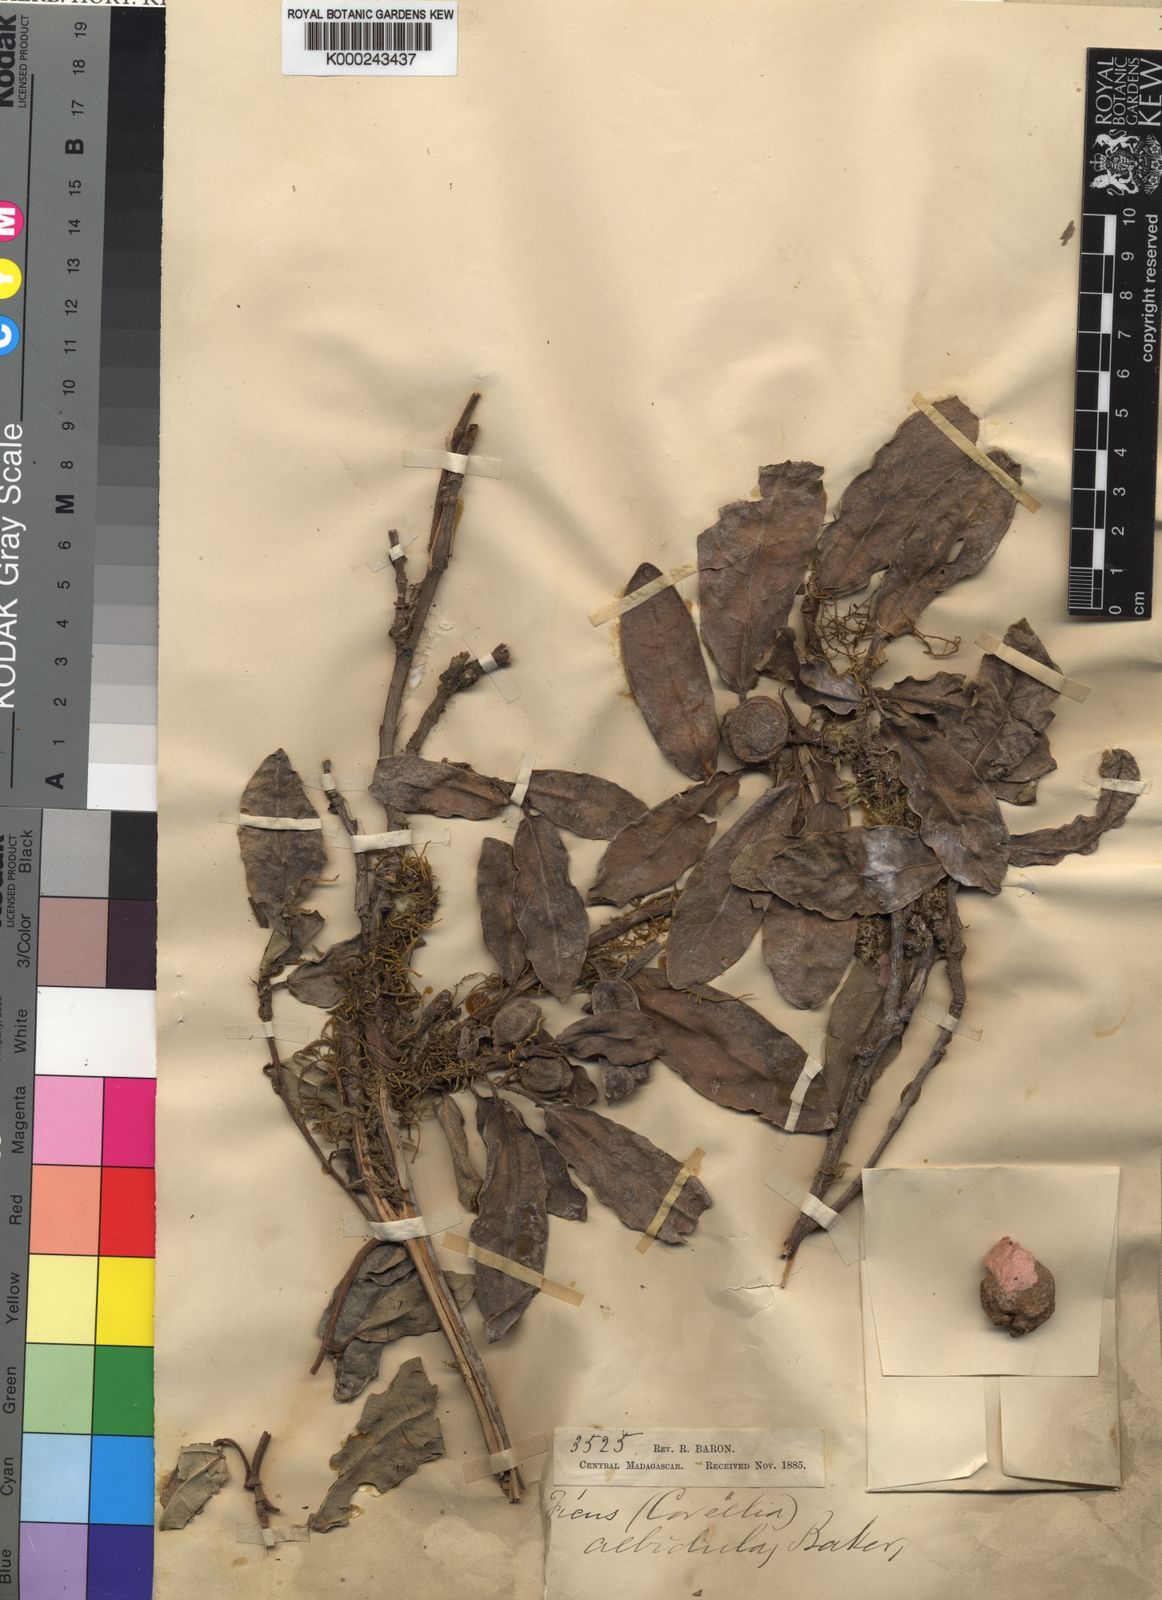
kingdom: Plantae
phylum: Tracheophyta
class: Magnoliopsida
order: Rosales
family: Moraceae
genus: Ficus
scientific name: Ficus polyphlebia
